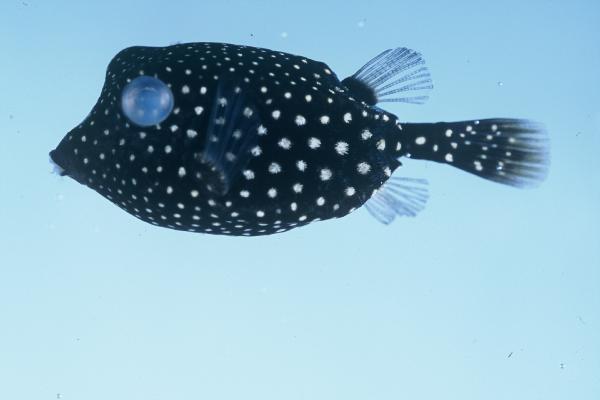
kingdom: Animalia
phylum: Chordata
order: Tetraodontiformes
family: Ostraciidae
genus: Ostracion
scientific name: Ostracion meleagris
